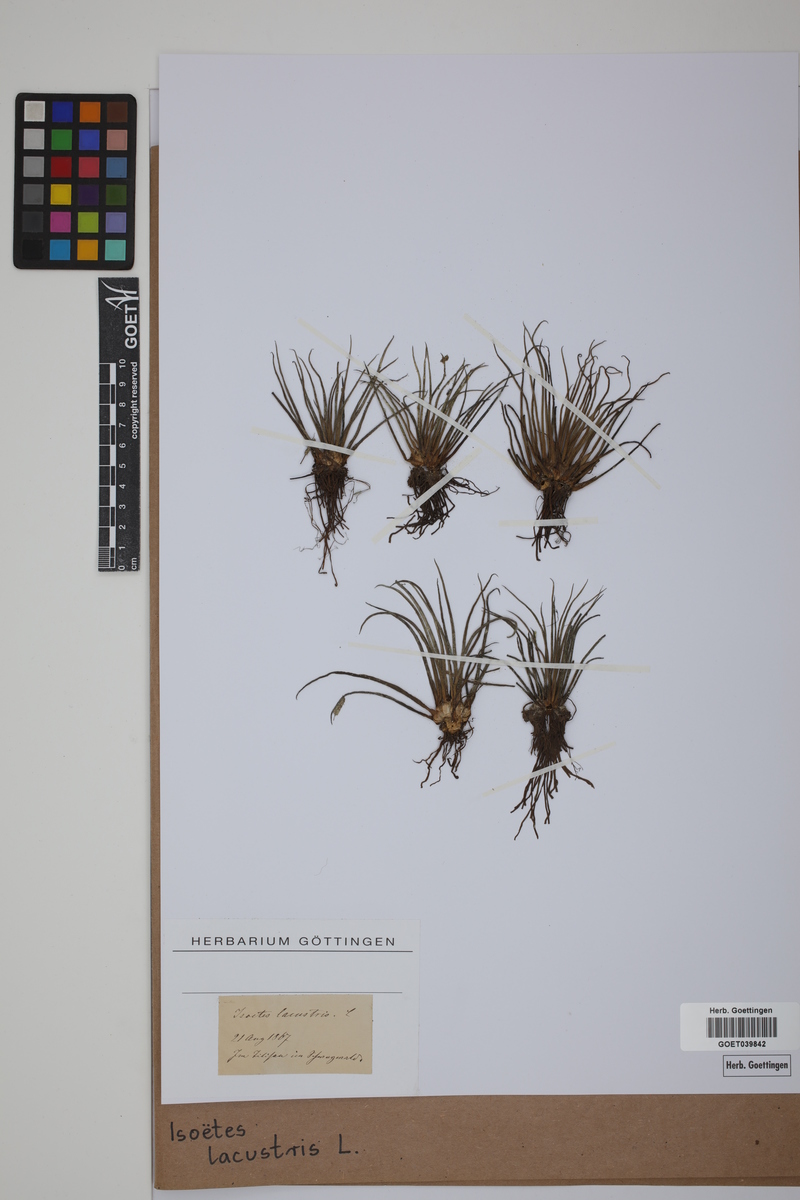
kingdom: Plantae
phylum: Tracheophyta
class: Lycopodiopsida
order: Isoetales
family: Isoetaceae
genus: Isoetes
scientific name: Isoetes lacustris
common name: Common quillwort
